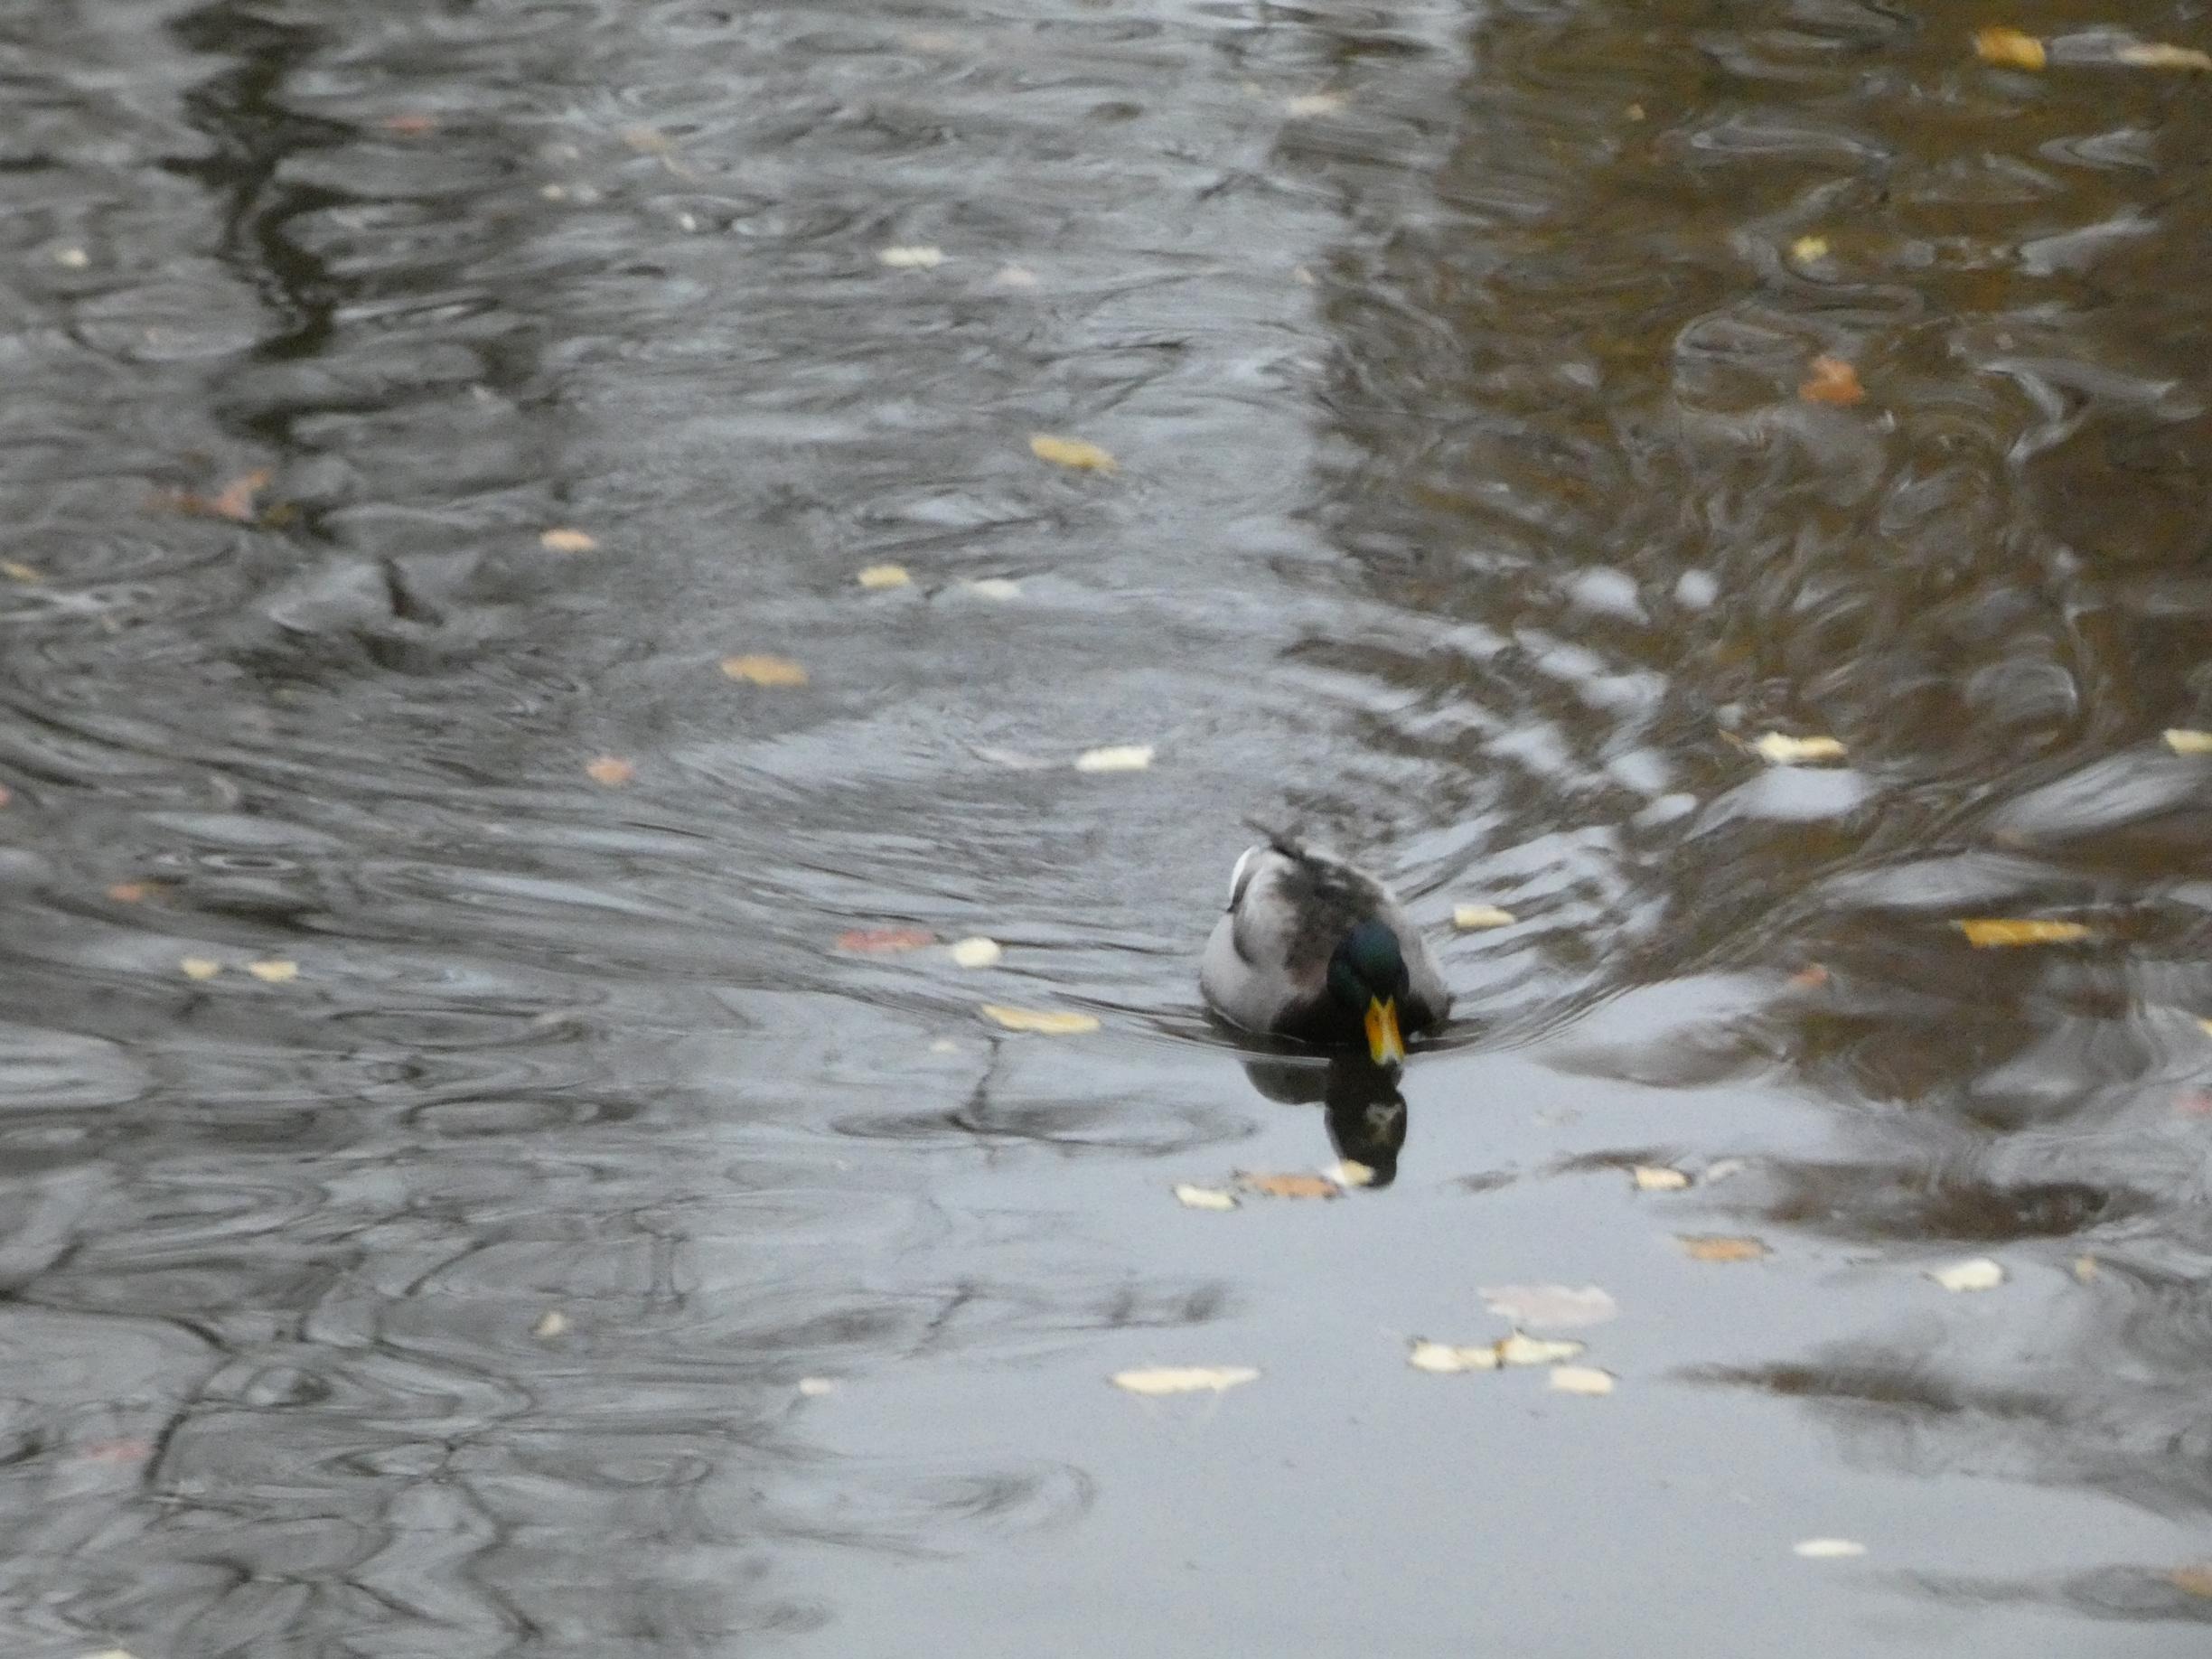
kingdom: Animalia
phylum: Chordata
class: Aves
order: Anseriformes
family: Anatidae
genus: Anas
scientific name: Anas platyrhynchos
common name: Gråand
